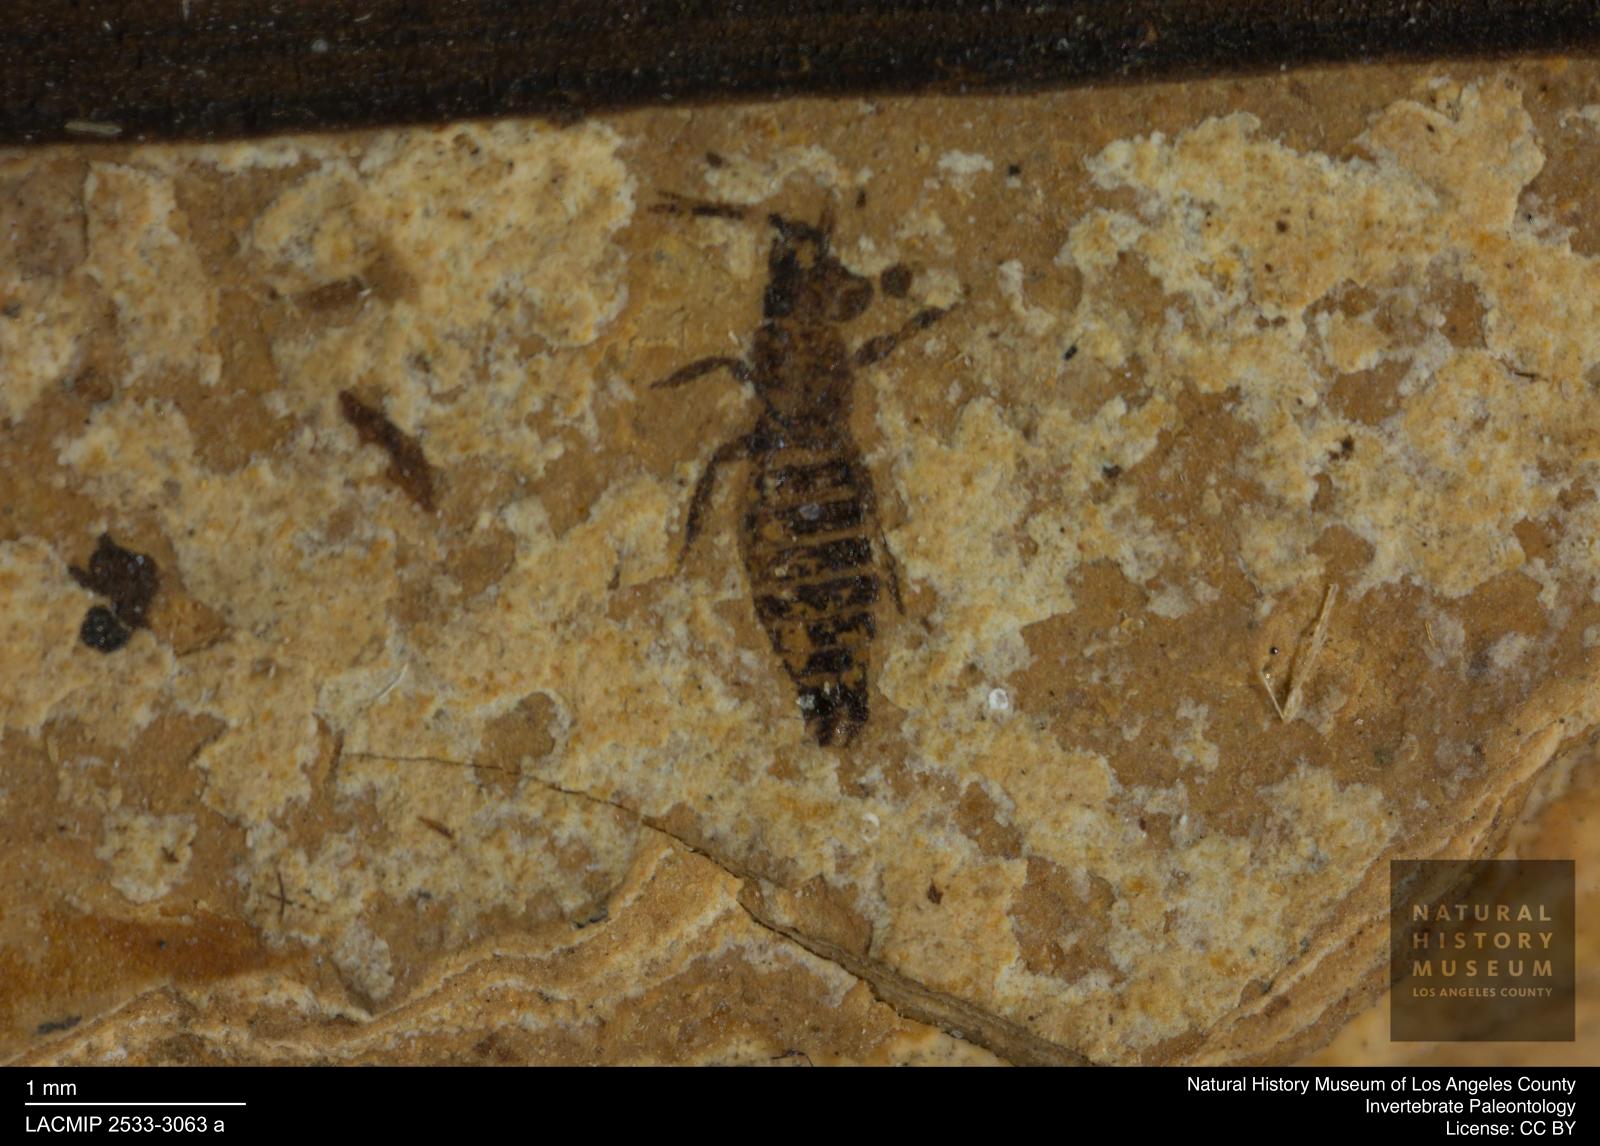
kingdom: Animalia
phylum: Arthropoda
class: Insecta
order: Thysanoptera
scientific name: Thysanoptera
